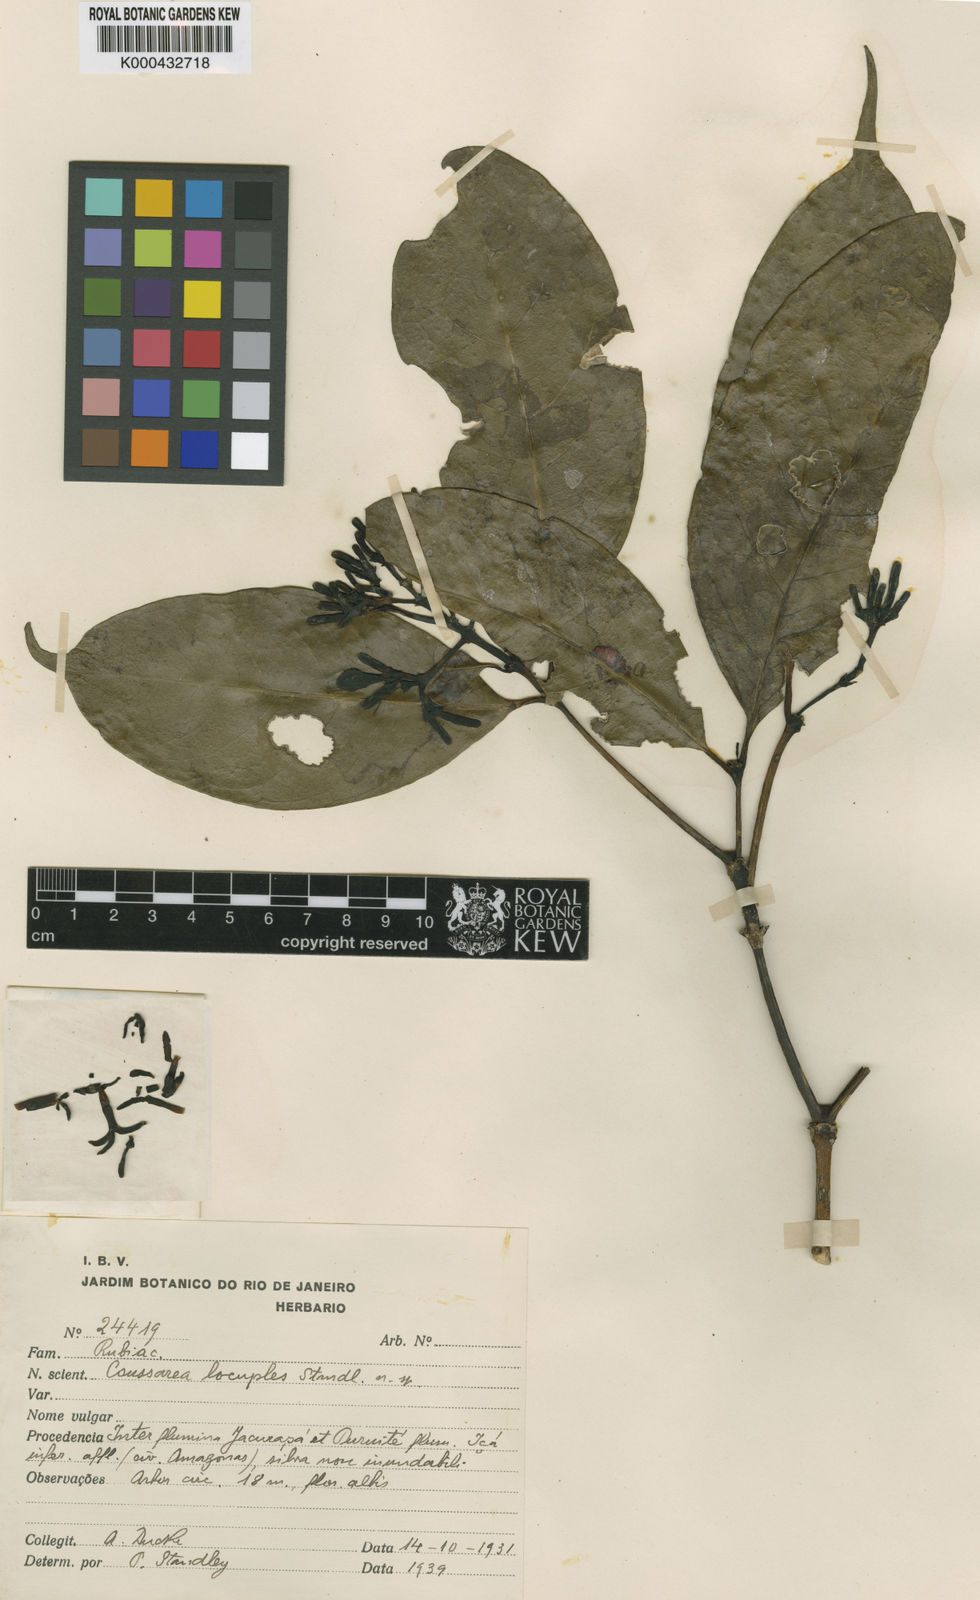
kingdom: Plantae
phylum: Tracheophyta
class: Magnoliopsida
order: Gentianales
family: Rubiaceae
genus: Coussarea
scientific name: Coussarea locuples
